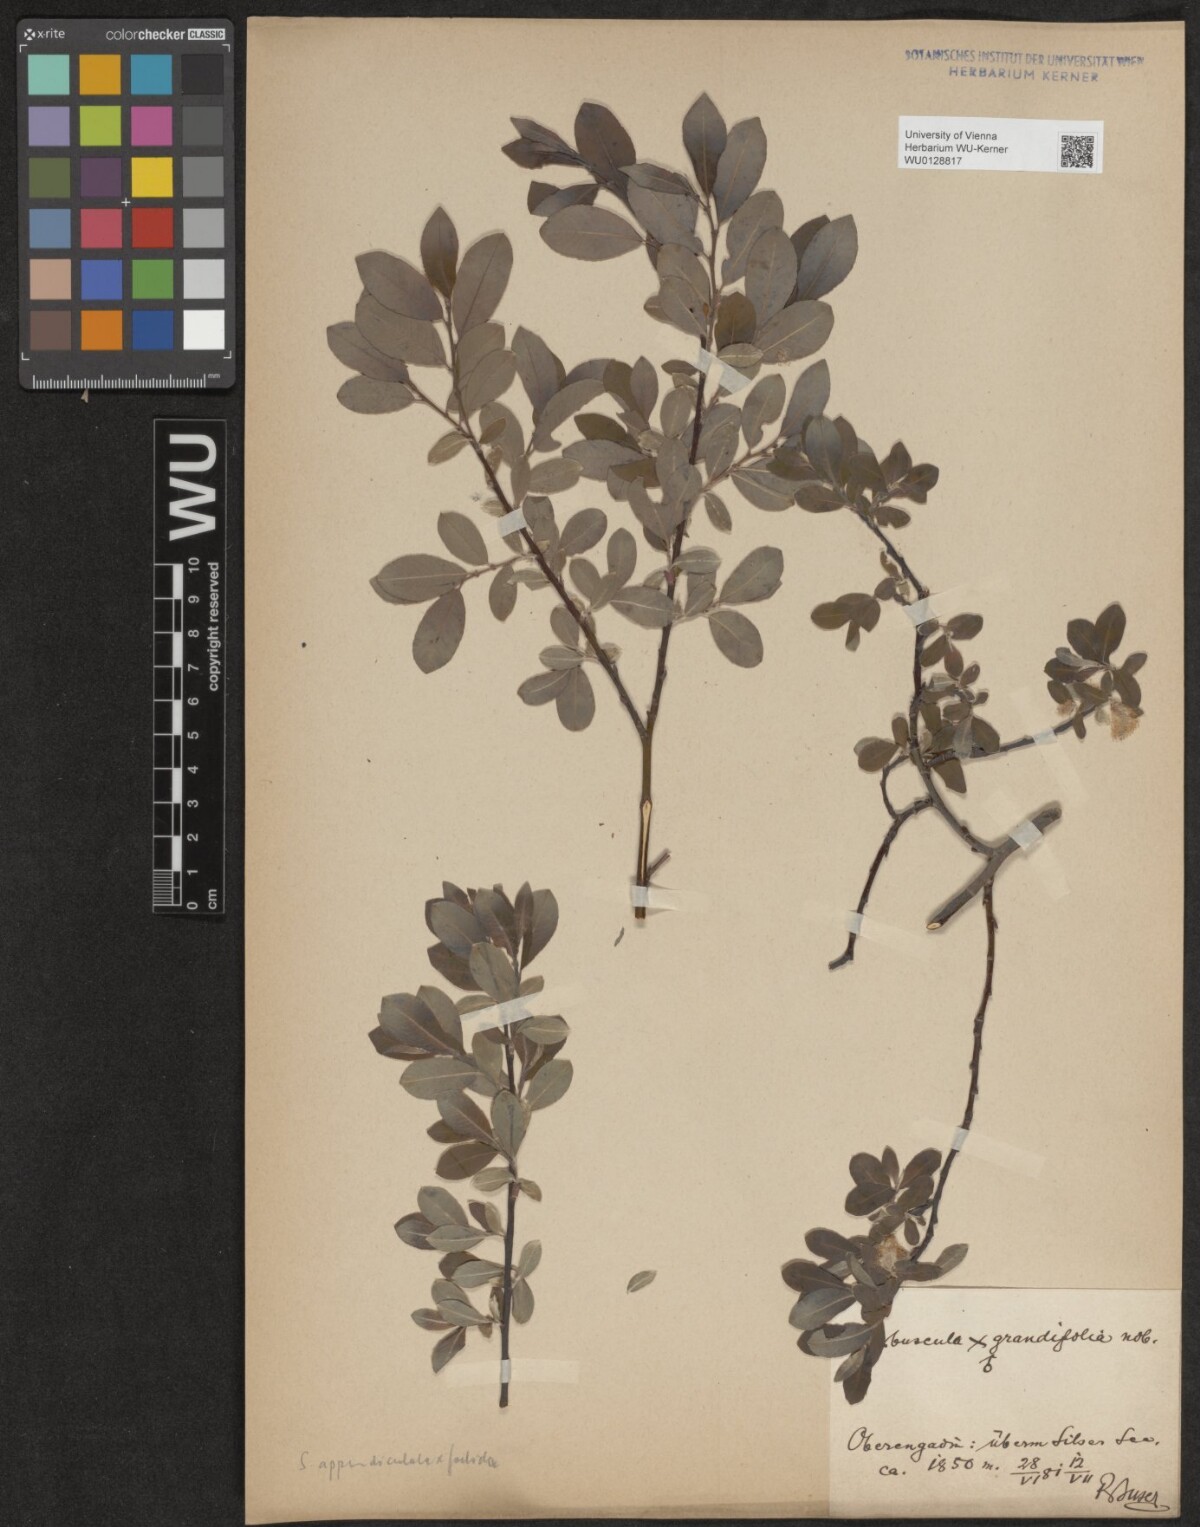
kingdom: Plantae
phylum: Tracheophyta
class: Magnoliopsida
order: Malpighiales
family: Salicaceae
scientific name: Salicaceae
